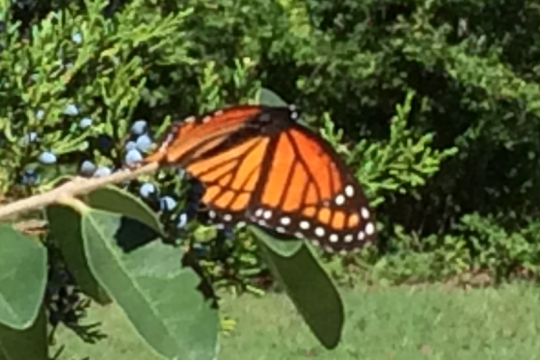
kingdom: Animalia
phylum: Arthropoda
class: Insecta
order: Lepidoptera
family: Nymphalidae
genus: Limenitis
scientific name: Limenitis archippus
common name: Viceroy
